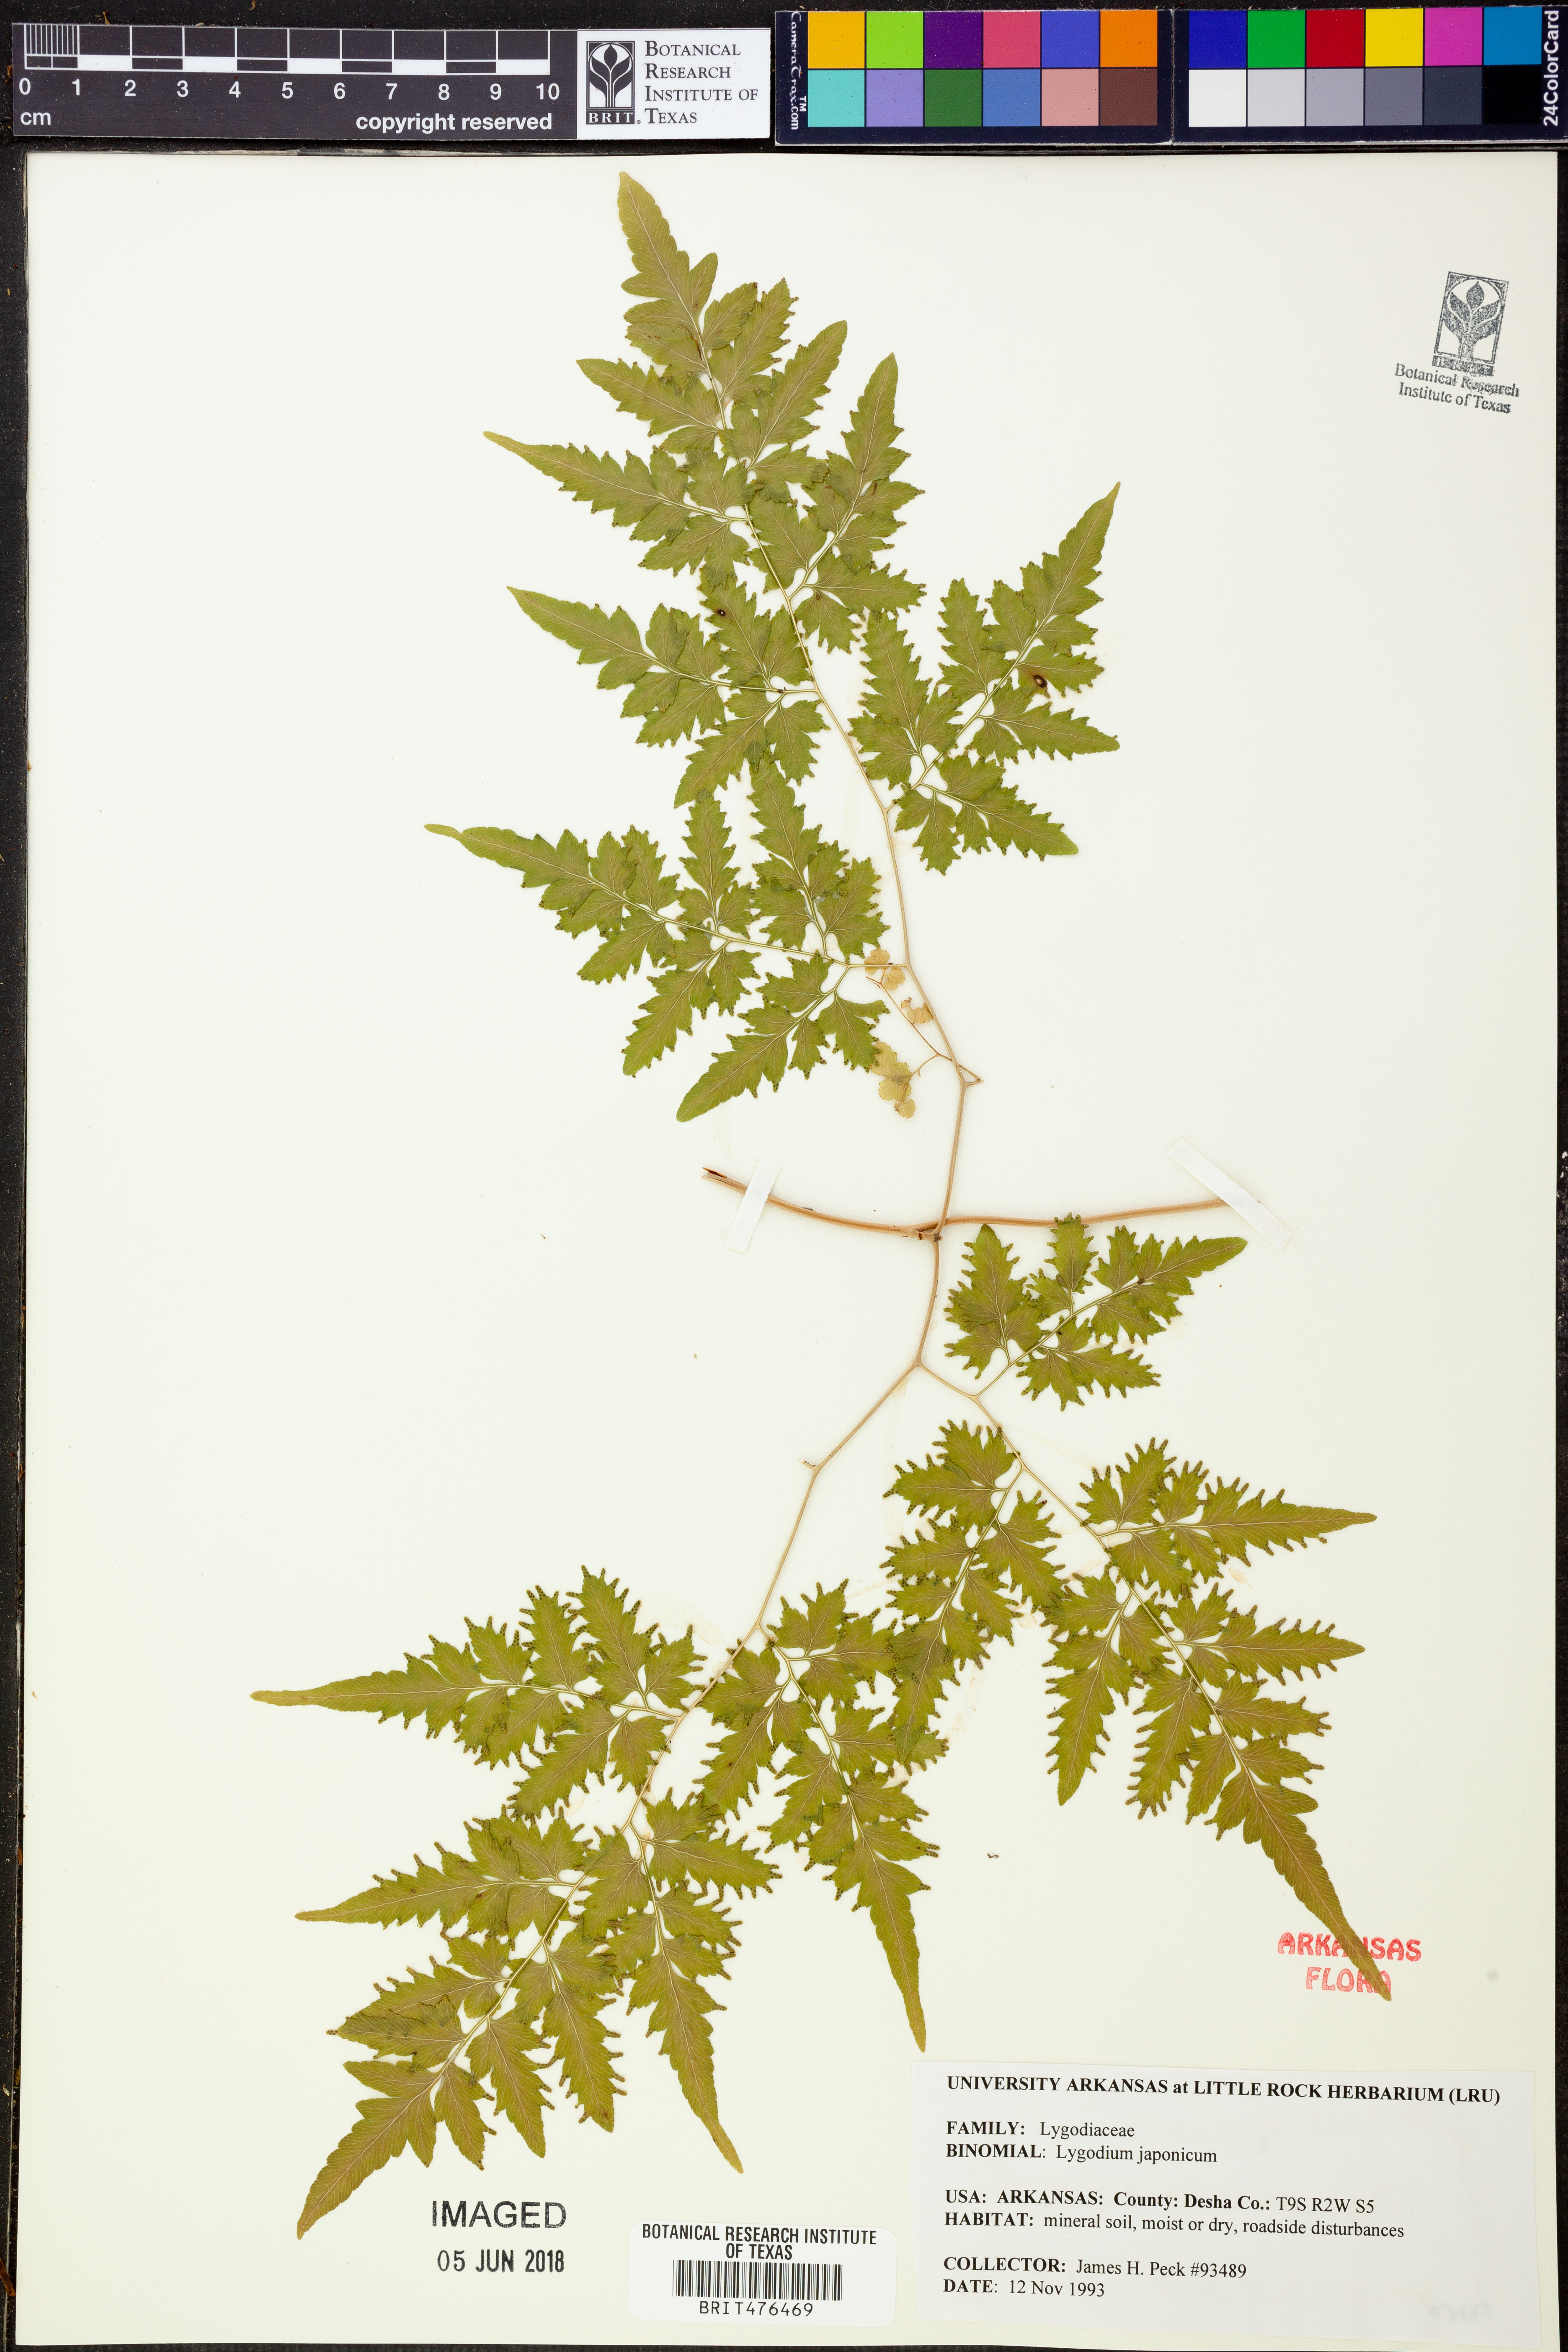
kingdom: Plantae
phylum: Tracheophyta
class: Polypodiopsida
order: Schizaeales
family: Lygodiaceae
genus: Lygodium
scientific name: Lygodium japonicum
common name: Japanese climbing fern
